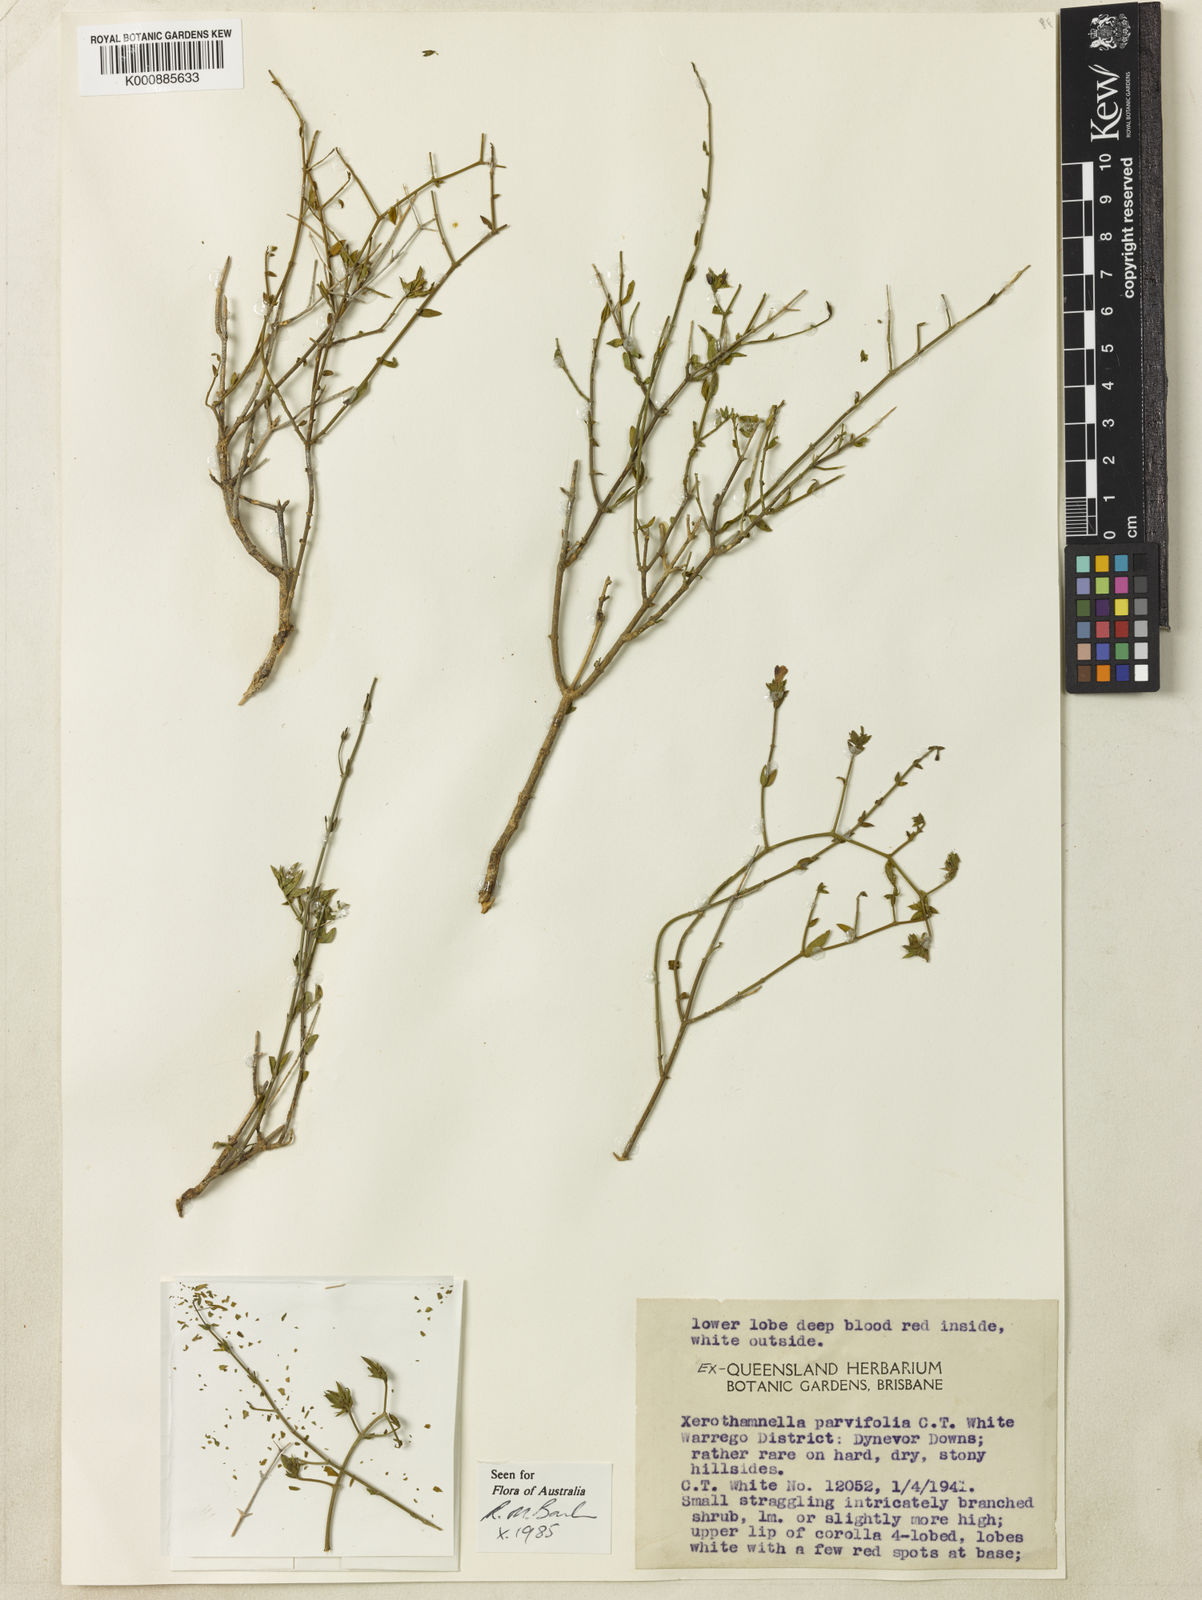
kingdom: Plantae
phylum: Tracheophyta
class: Magnoliopsida
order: Lamiales
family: Acanthaceae
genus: Xerothamnella
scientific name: Xerothamnella parvifolia
